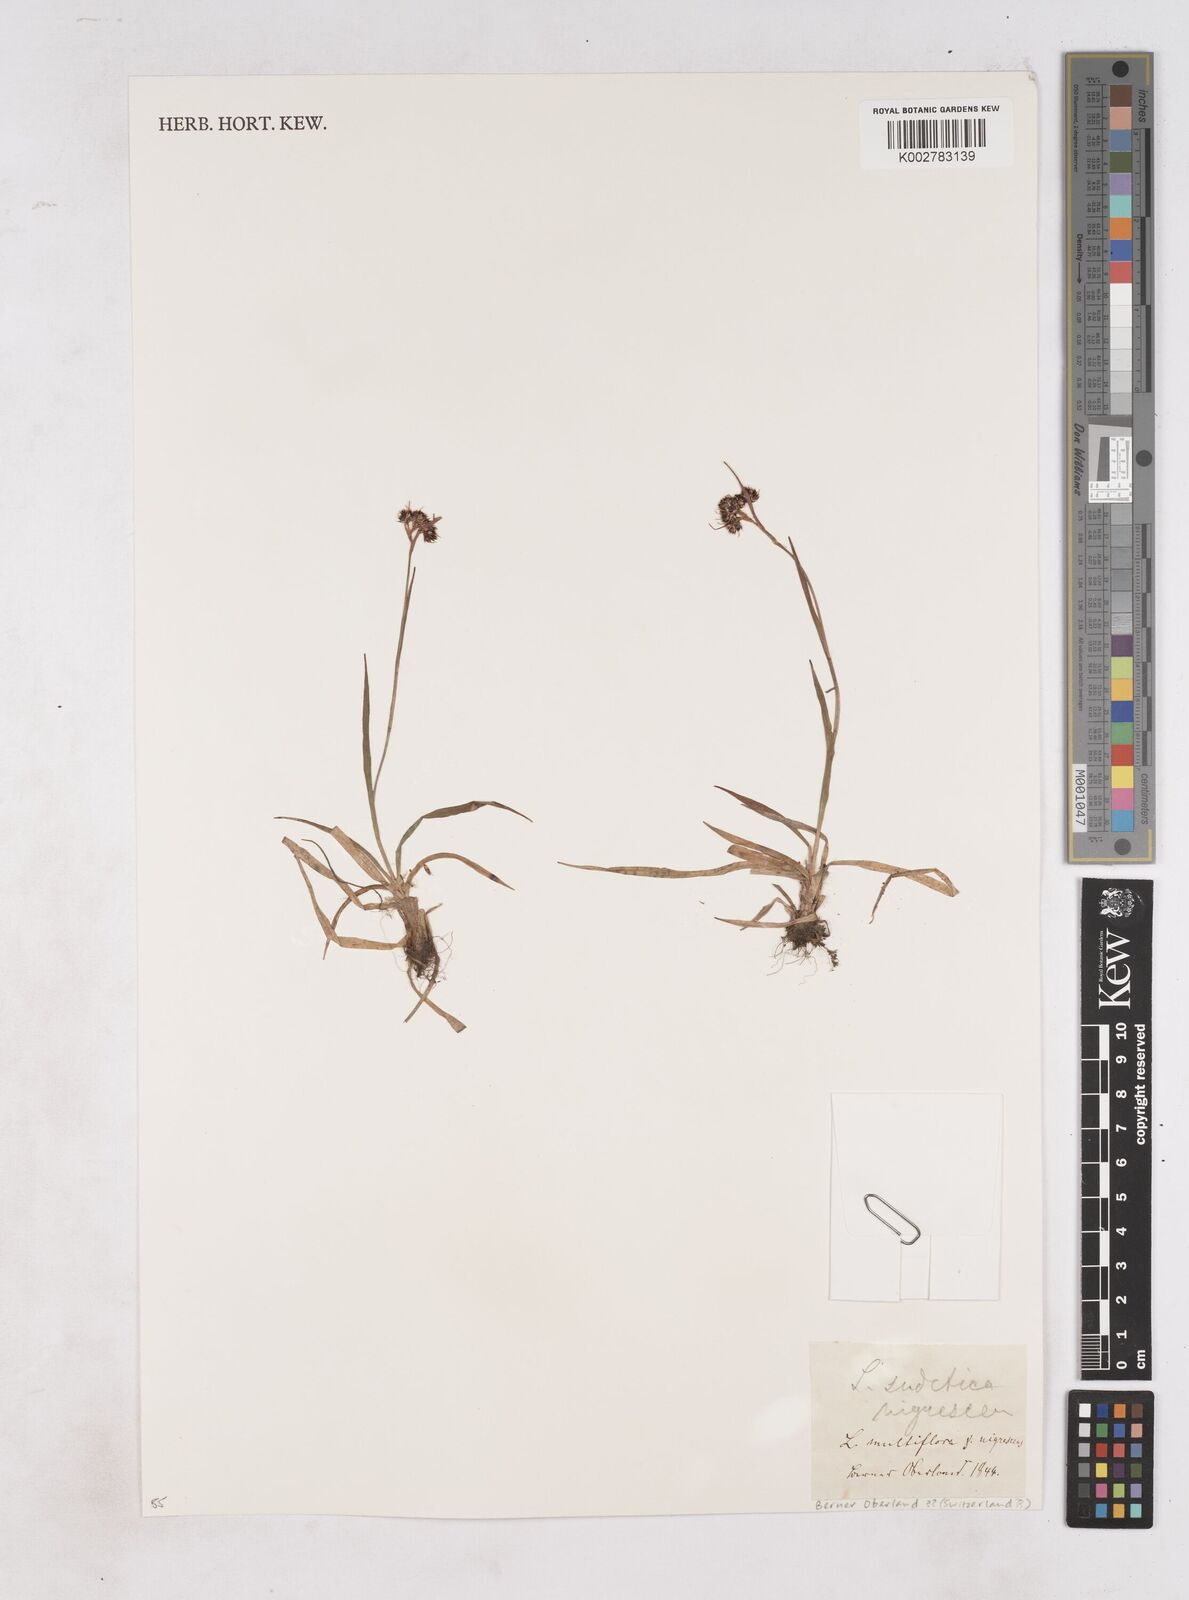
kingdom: Plantae
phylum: Tracheophyta
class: Liliopsida
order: Poales
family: Juncaceae
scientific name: Juncaceae
